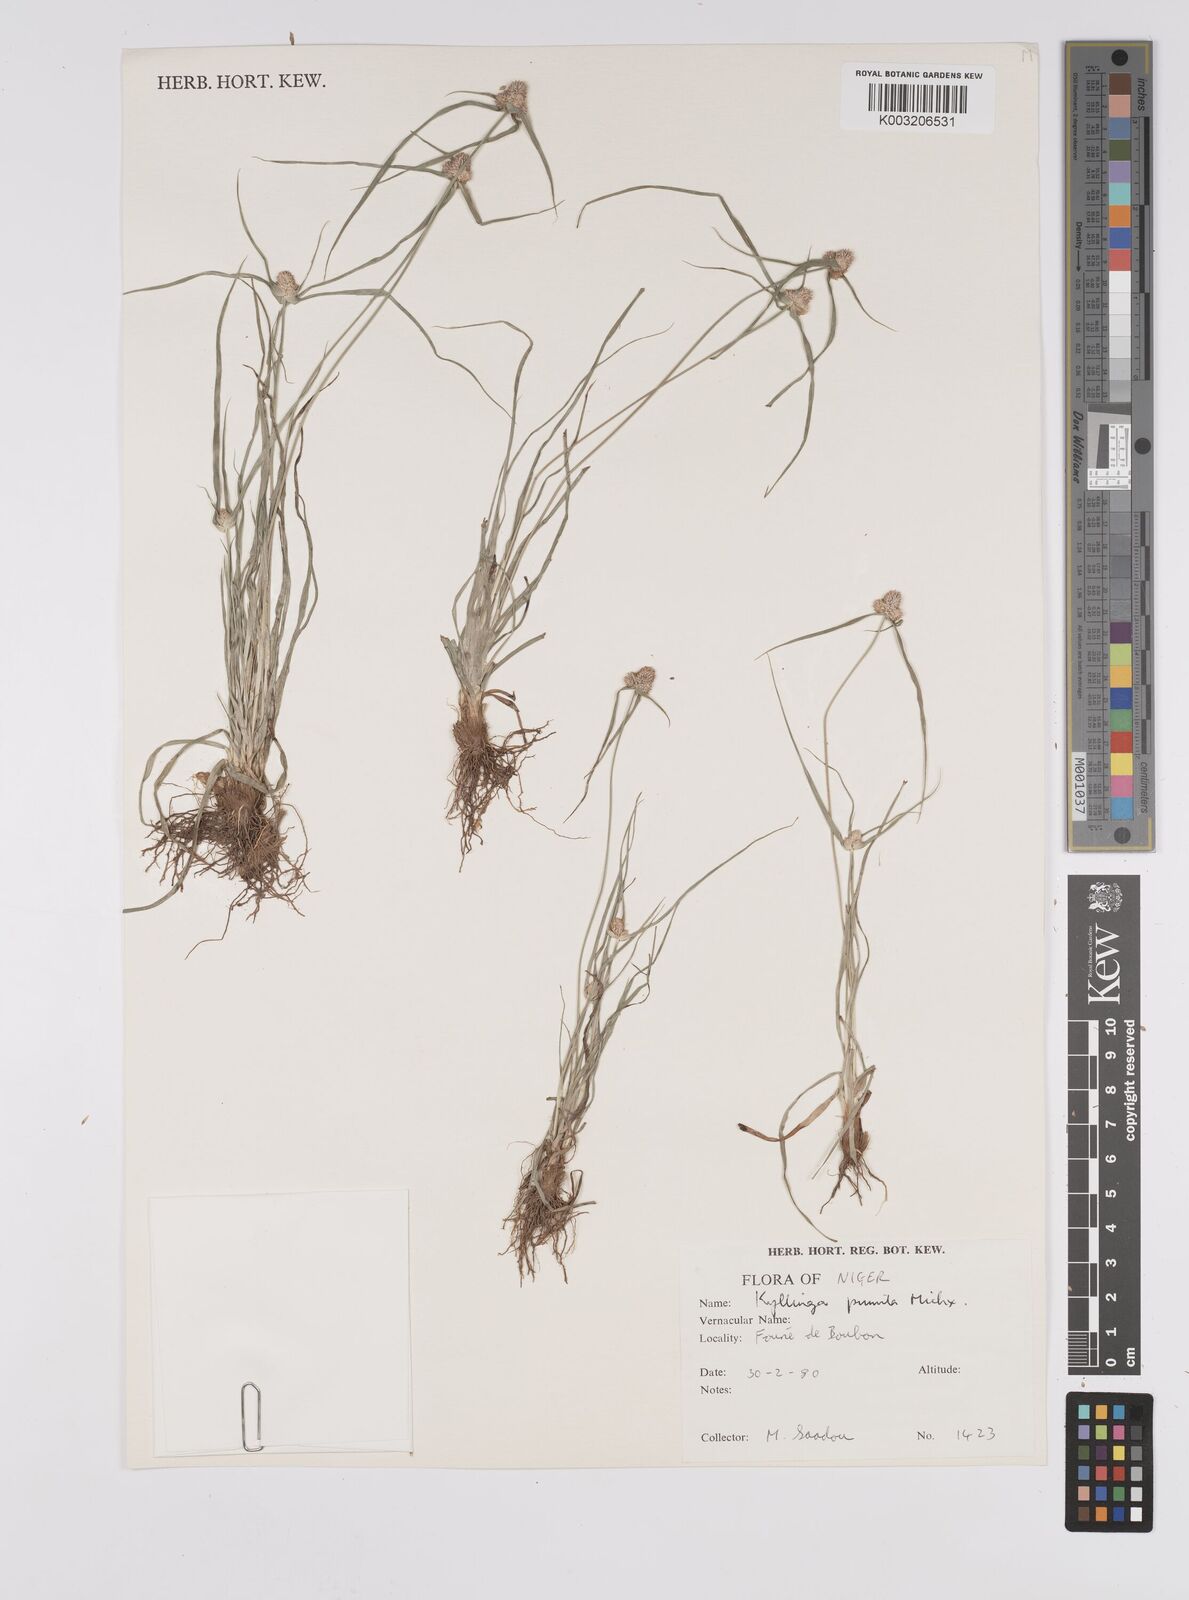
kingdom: Plantae
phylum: Tracheophyta
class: Liliopsida
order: Poales
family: Cyperaceae
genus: Cyperus
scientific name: Cyperus
